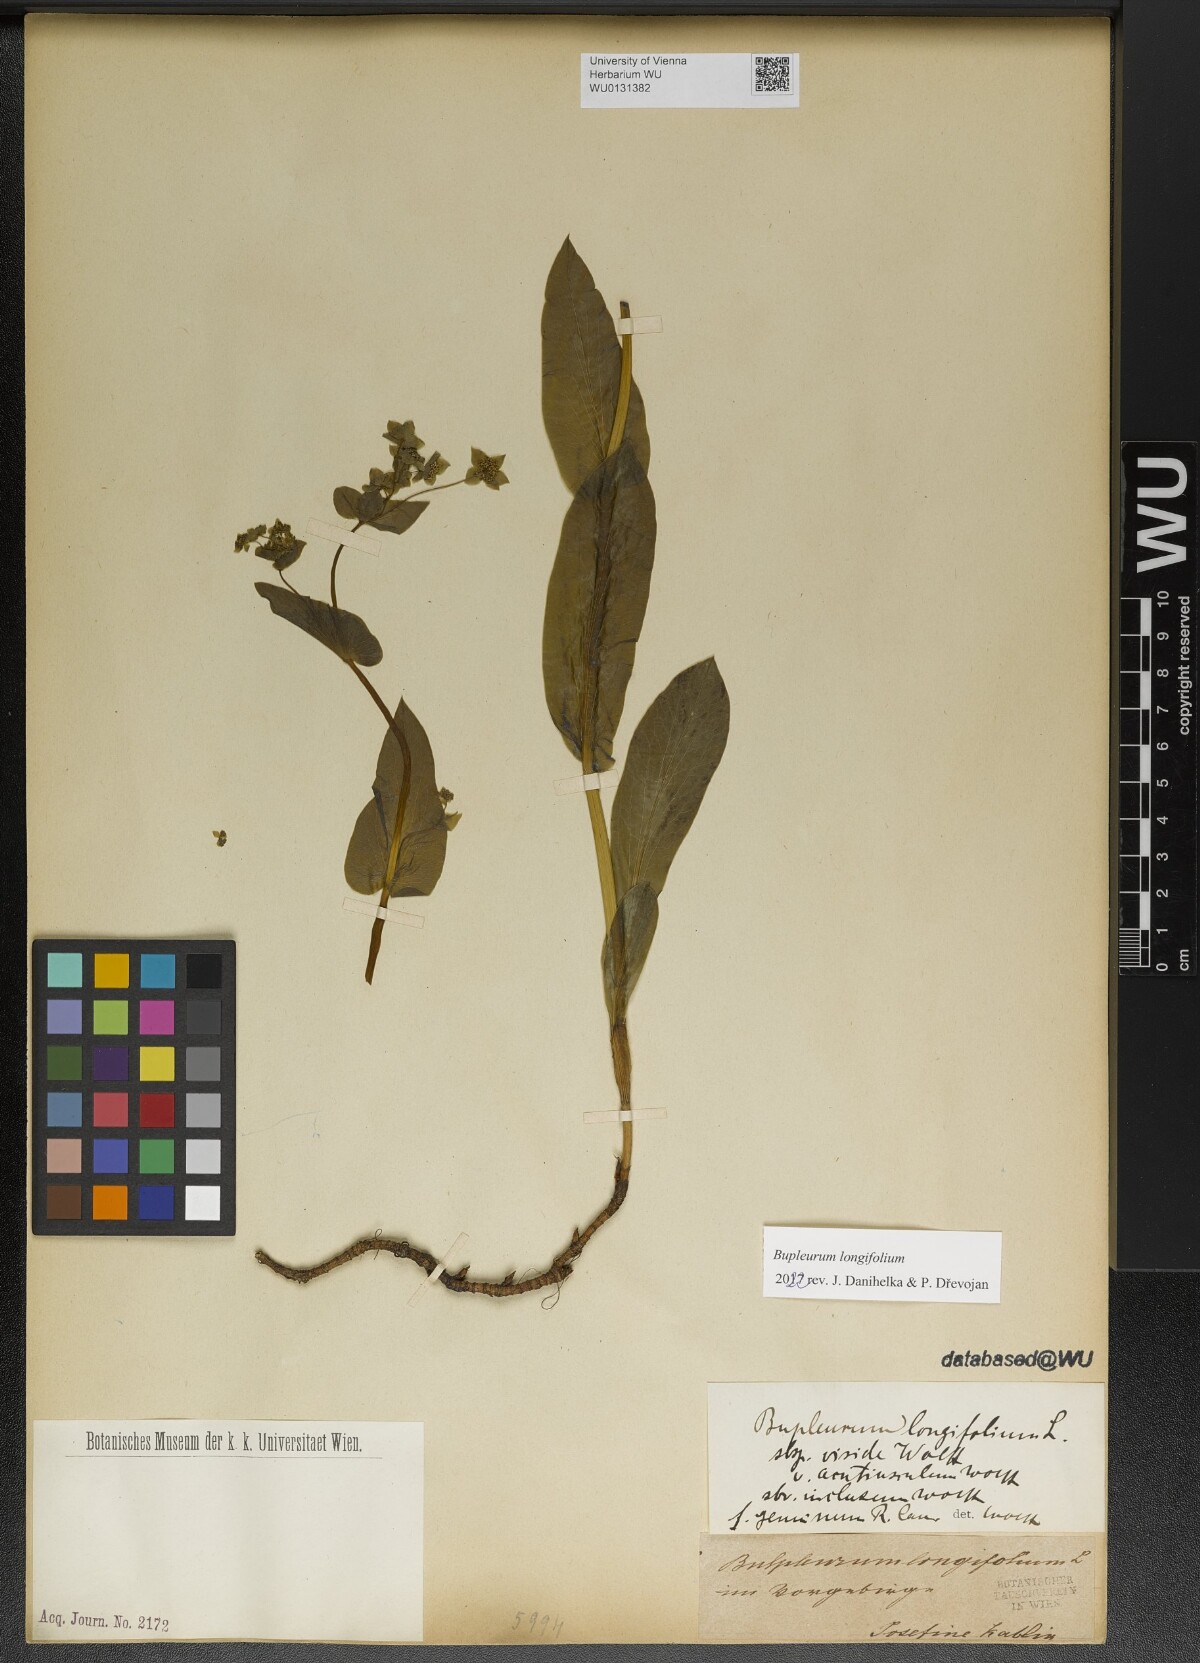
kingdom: Plantae
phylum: Tracheophyta
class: Magnoliopsida
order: Apiales
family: Apiaceae
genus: Bupleurum
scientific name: Bupleurum longifolium
